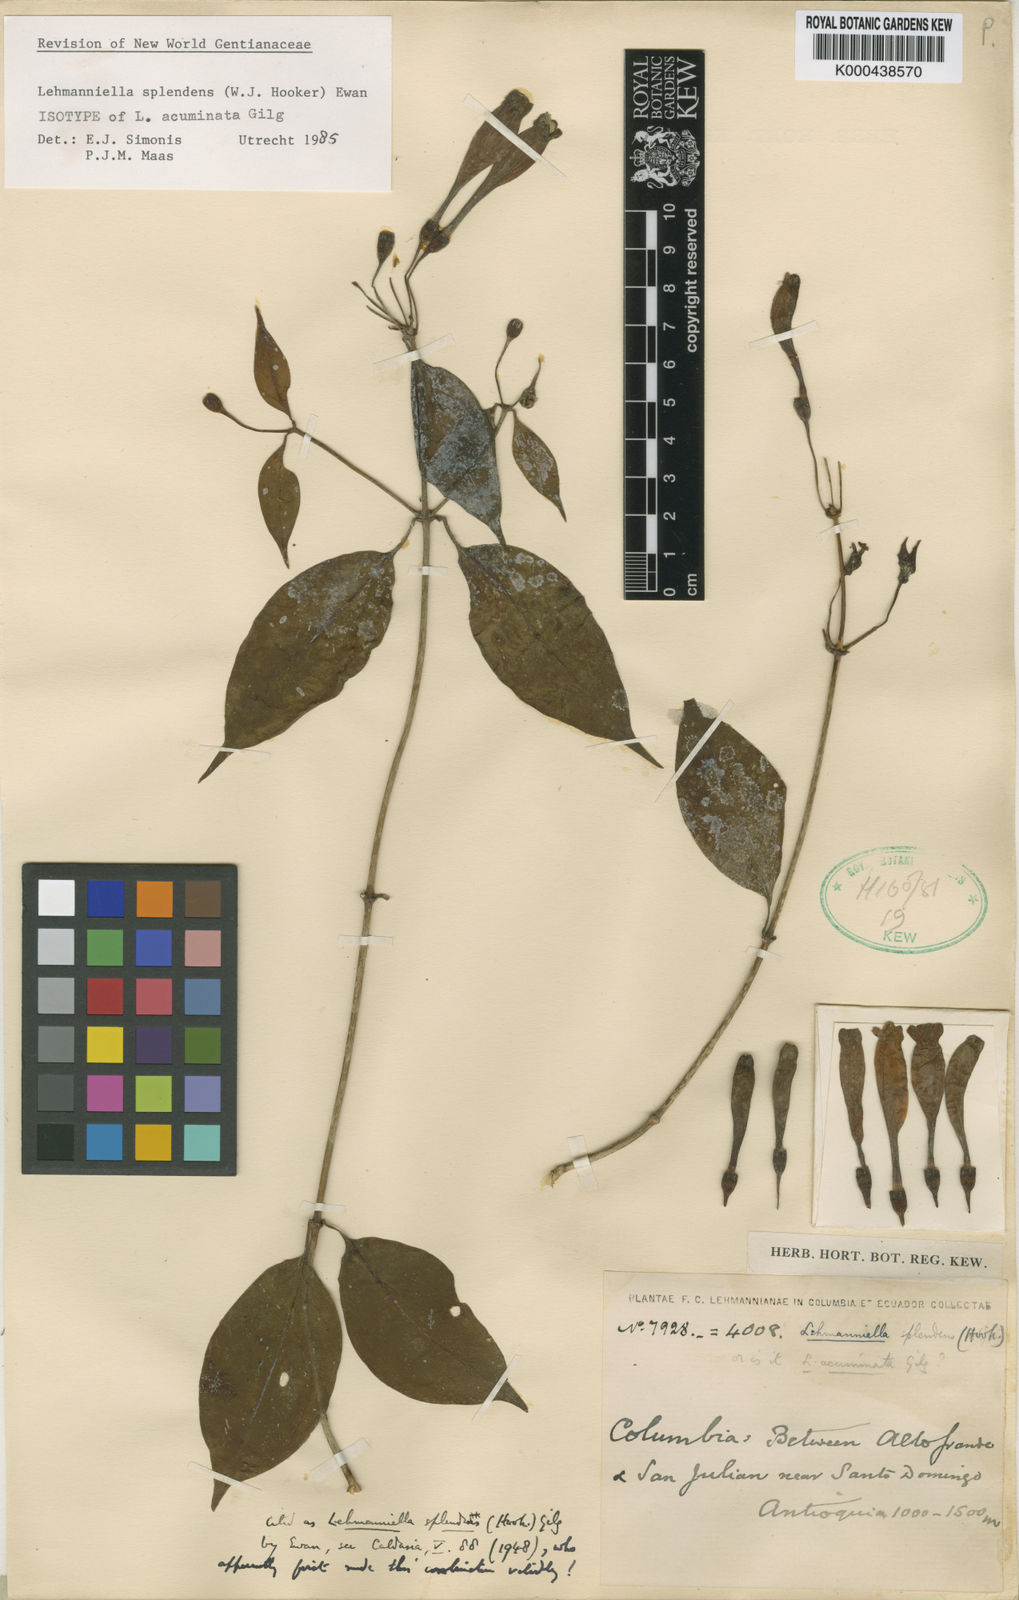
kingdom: Plantae
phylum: Tracheophyta
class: Magnoliopsida
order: Gentianales
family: Gentianaceae
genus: Lehmanniella
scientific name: Lehmanniella splendens
